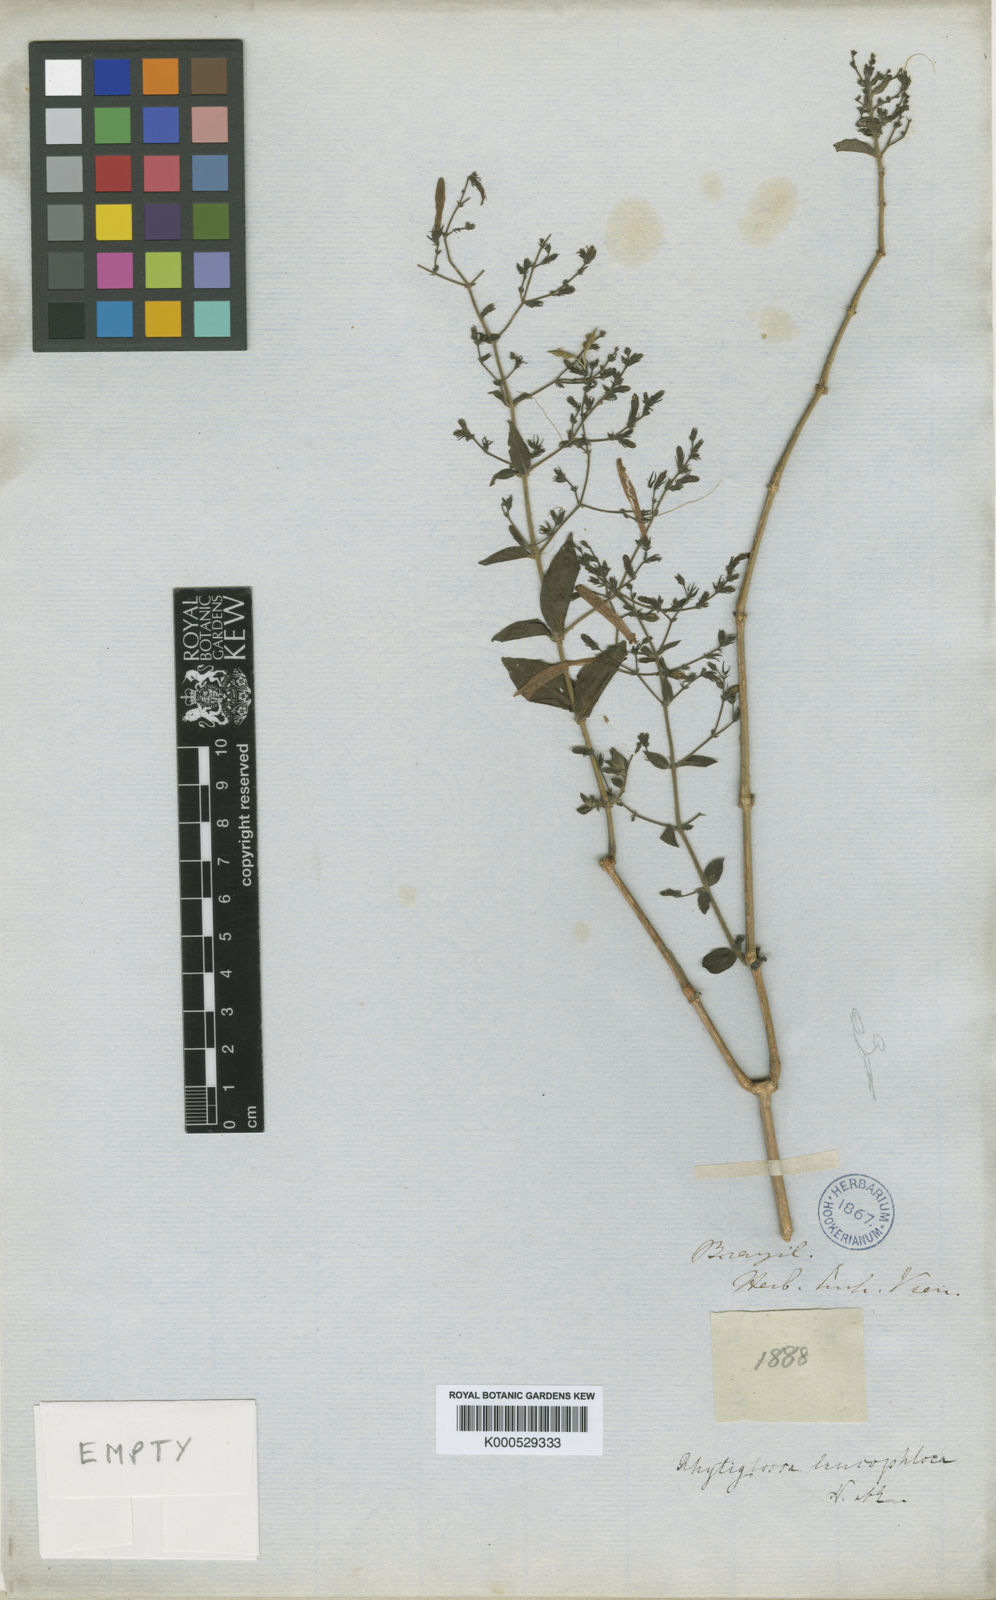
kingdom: Plantae
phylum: Tracheophyta
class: Magnoliopsida
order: Lamiales
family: Acanthaceae
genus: Justicia
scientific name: Justicia
